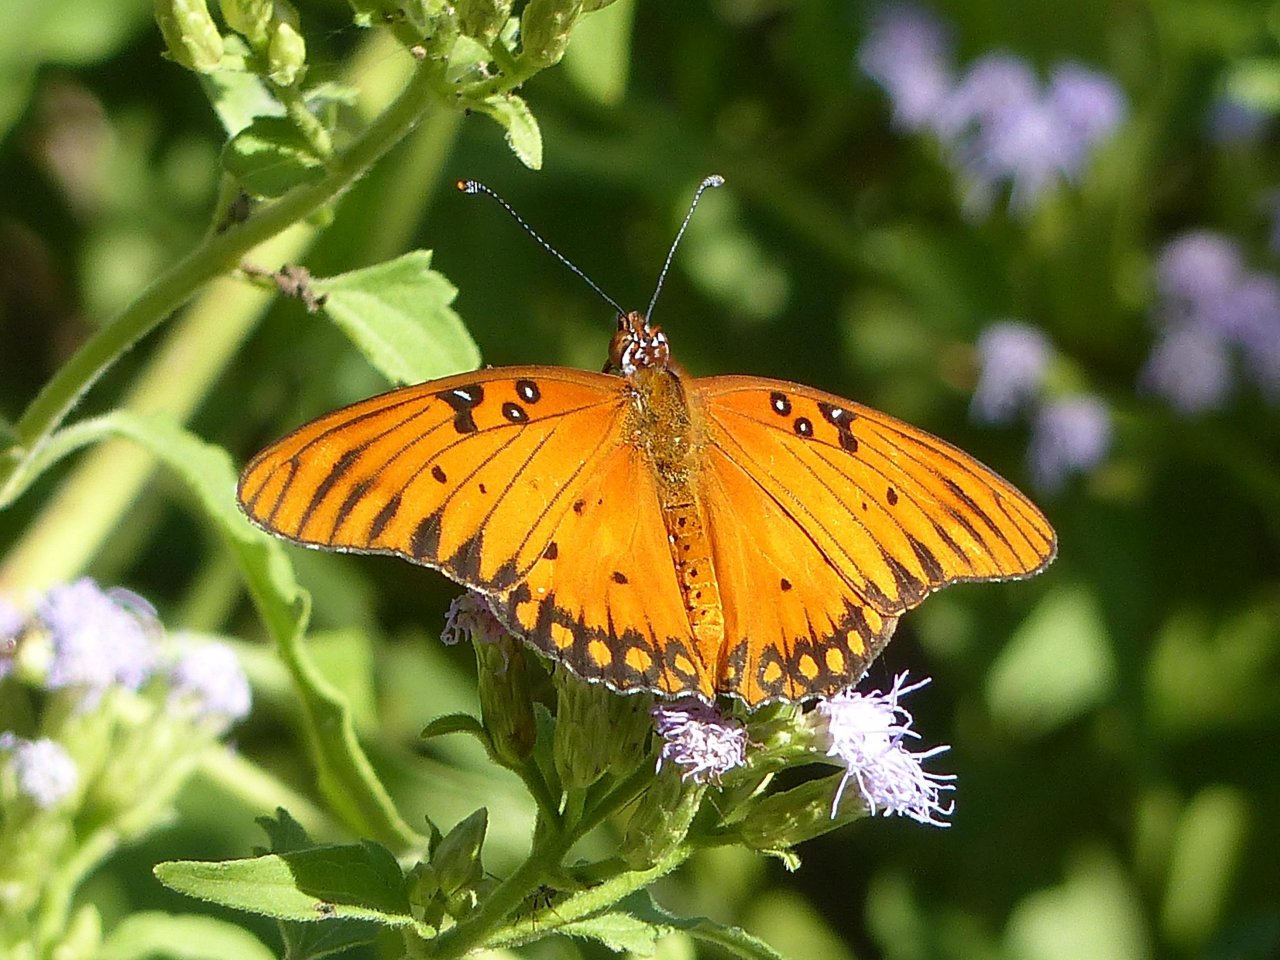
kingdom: Animalia
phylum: Arthropoda
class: Insecta
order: Lepidoptera
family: Nymphalidae
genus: Dione
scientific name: Dione vanillae
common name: Gulf Fritillary
